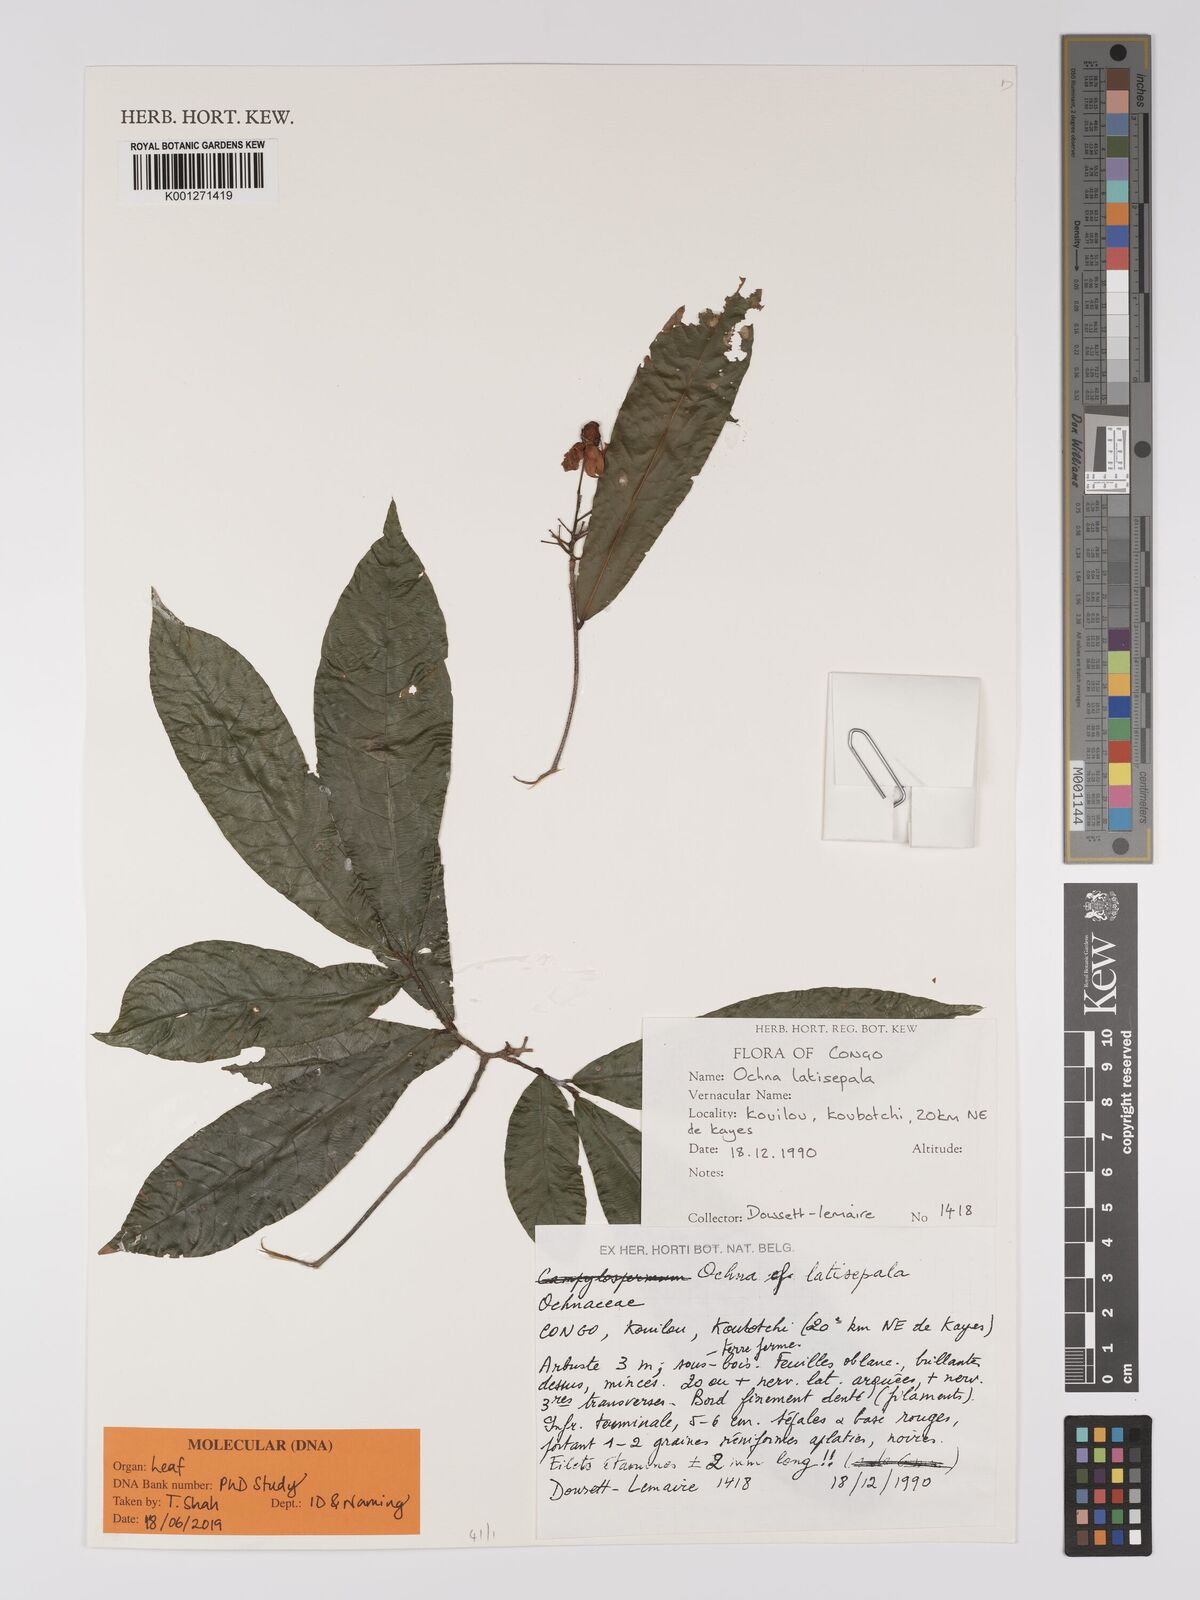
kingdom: Plantae
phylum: Tracheophyta
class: Magnoliopsida
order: Malpighiales
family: Ochnaceae
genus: Ochna
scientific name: Ochna latisepala
